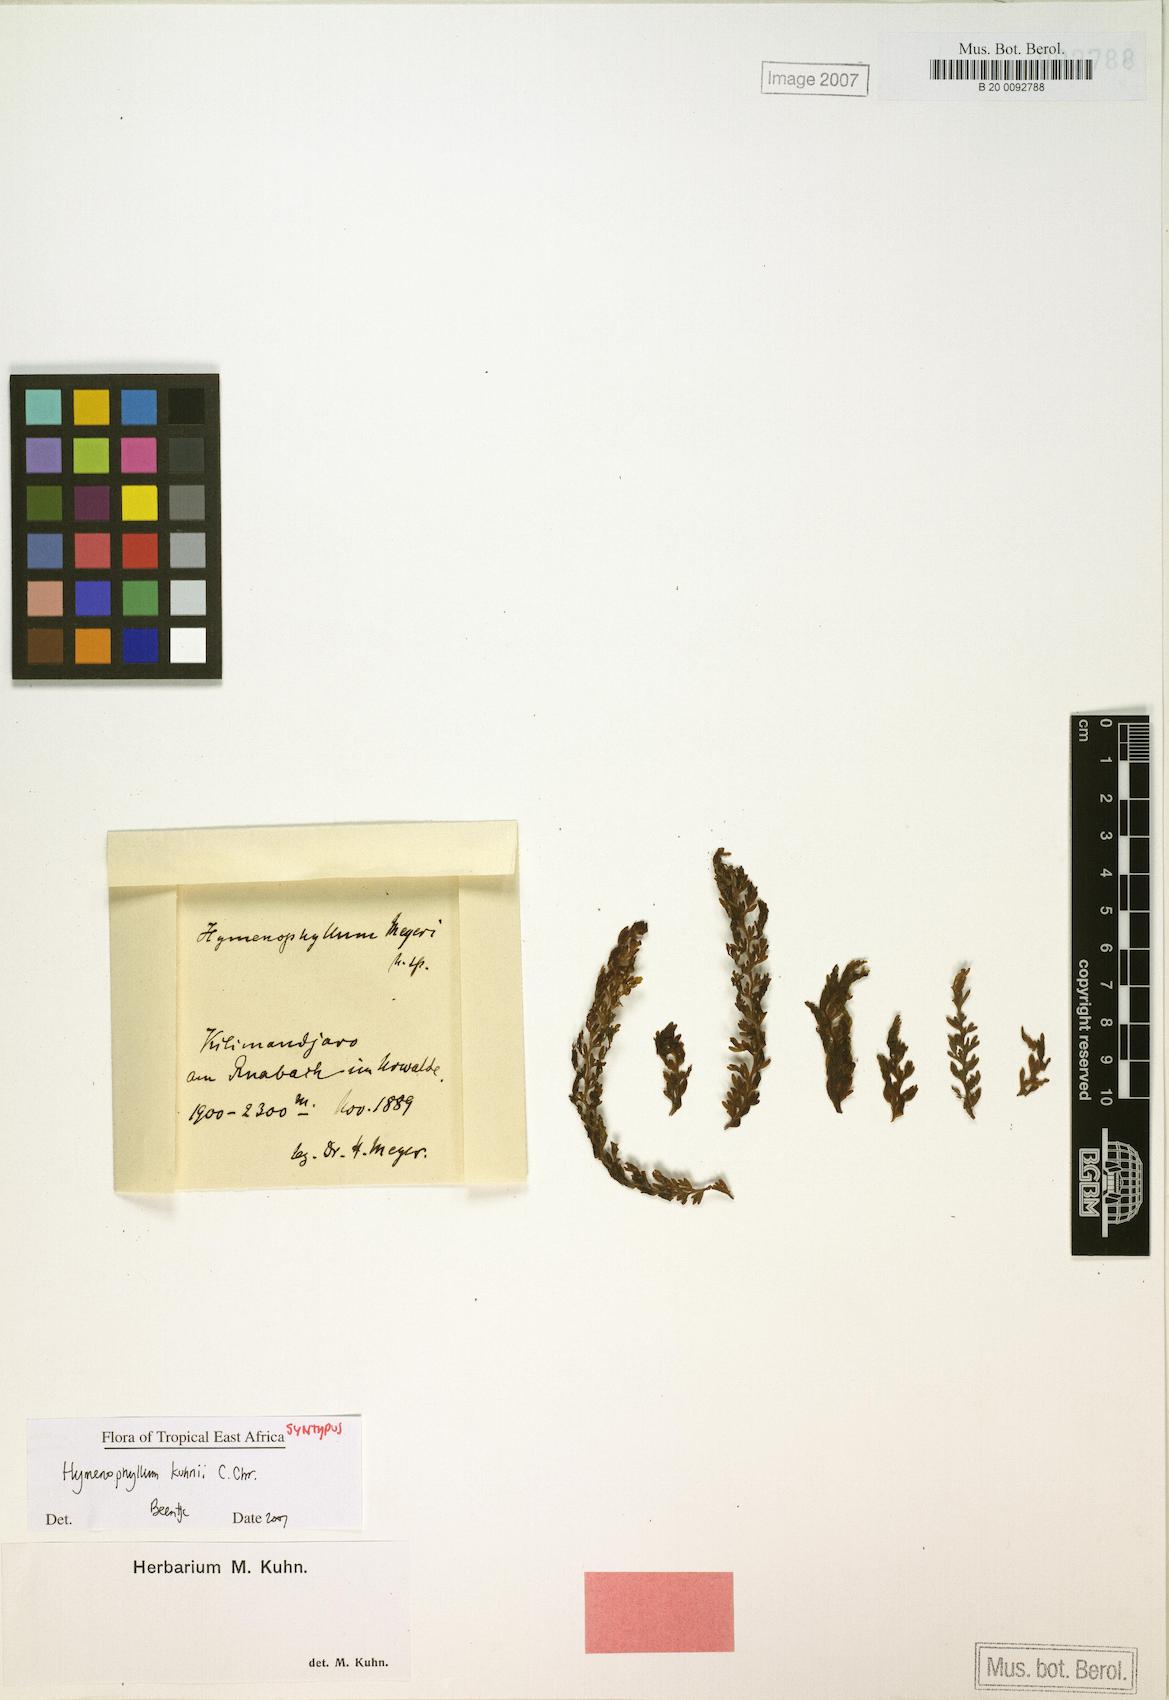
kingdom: Plantae
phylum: Tracheophyta
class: Polypodiopsida
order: Hymenophyllales
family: Hymenophyllaceae
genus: Hymenophyllum
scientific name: Hymenophyllum kuhnii
